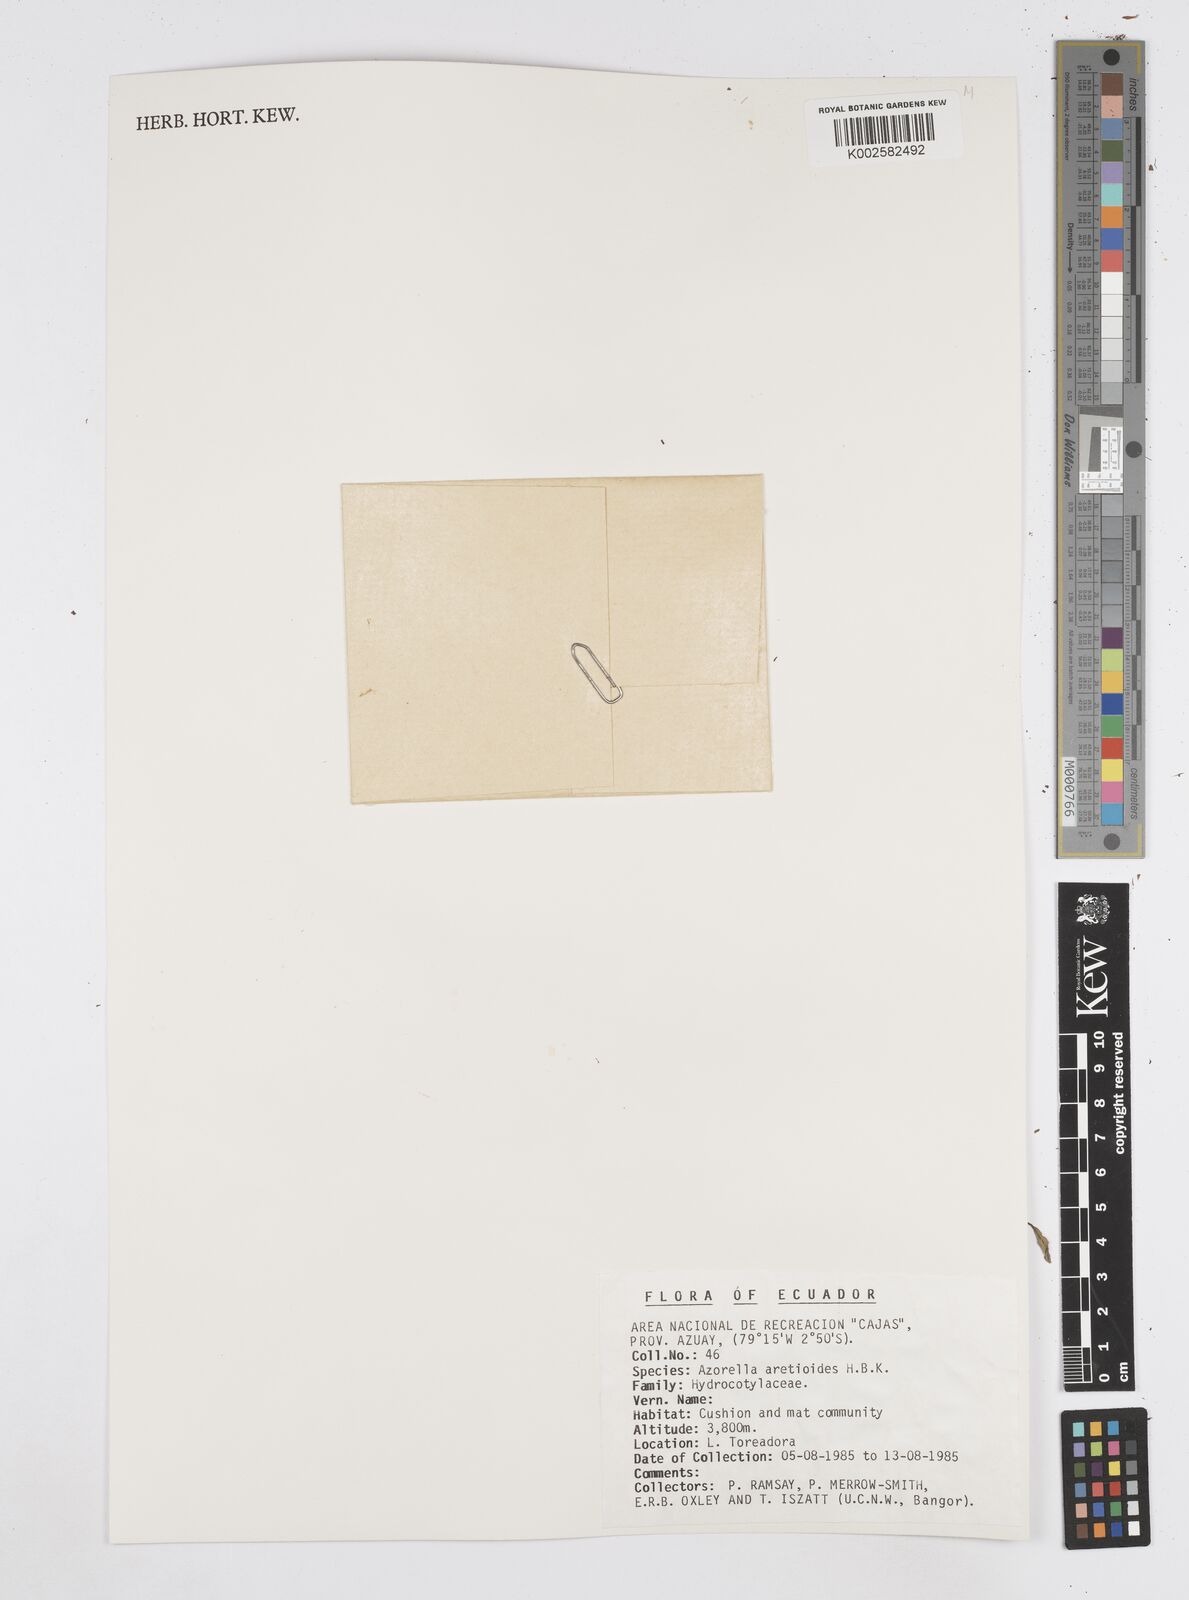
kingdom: Plantae
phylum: Tracheophyta
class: Magnoliopsida
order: Apiales
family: Apiaceae
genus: Azorella
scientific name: Azorella aretioides
